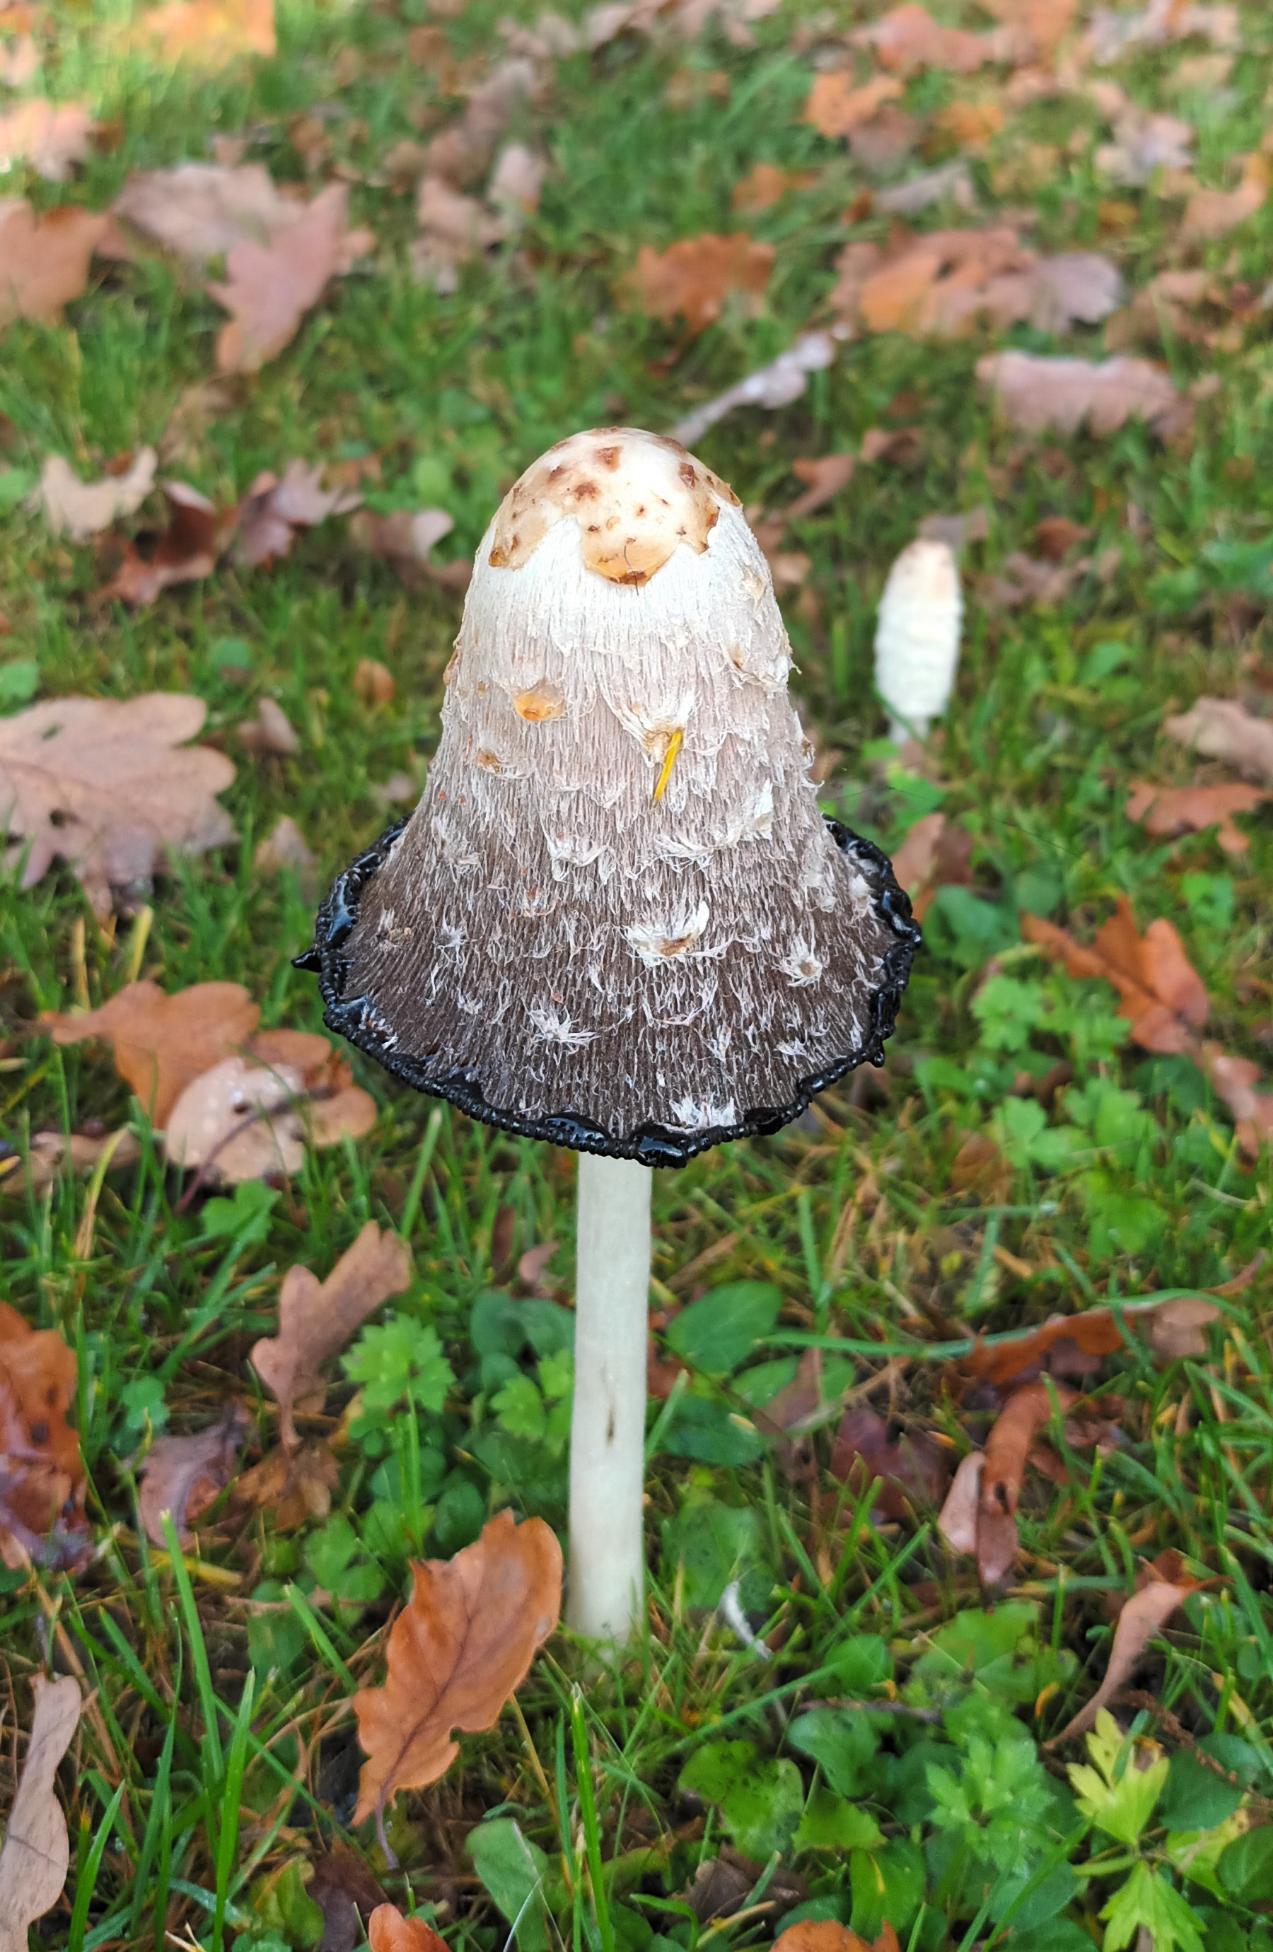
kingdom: Fungi
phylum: Basidiomycota
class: Agaricomycetes
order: Agaricales
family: Agaricaceae
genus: Coprinus
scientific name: Coprinus comatus
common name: Stor parykhat
